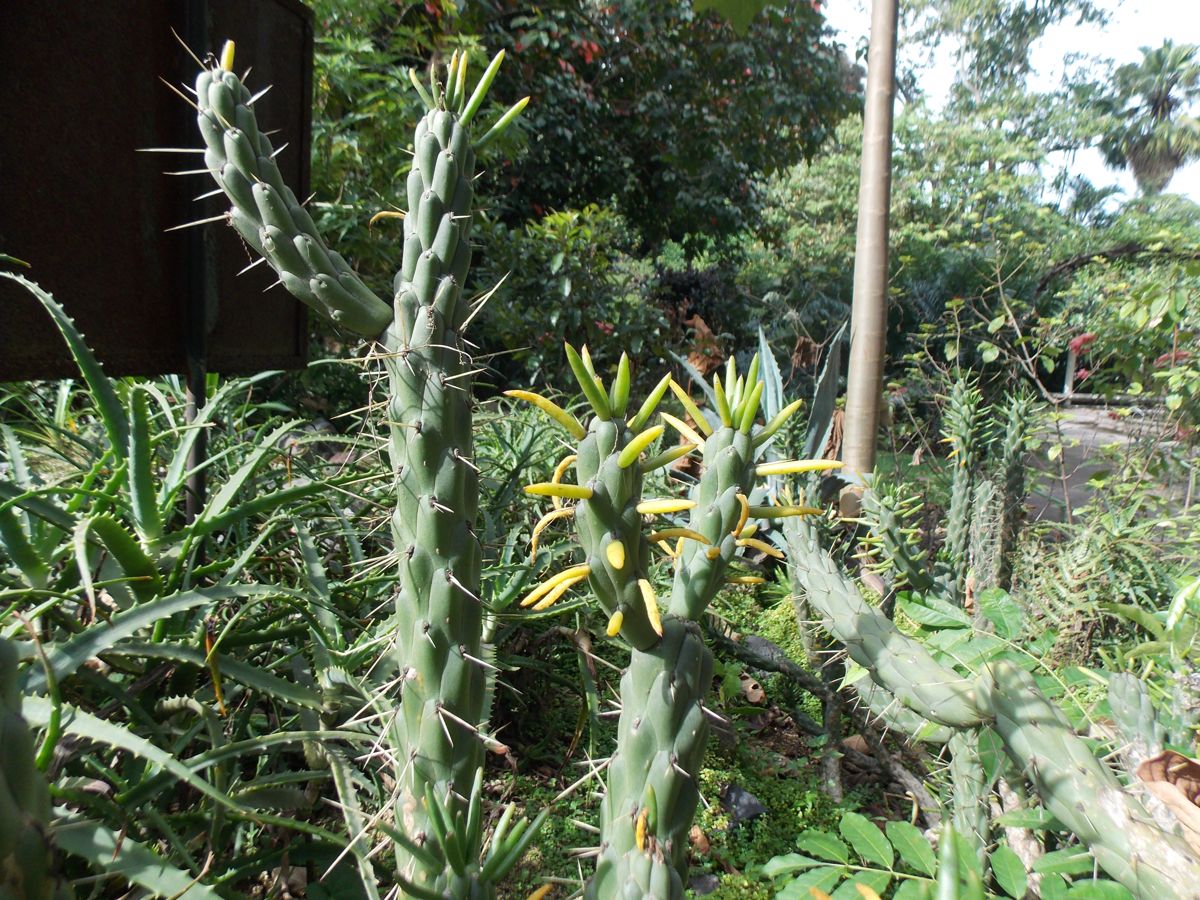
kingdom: Plantae
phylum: Tracheophyta
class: Magnoliopsida
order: Caryophyllales
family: Cactaceae
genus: Austrocylindropuntia
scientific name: Austrocylindropuntia subulata
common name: Eve's needle cactus
